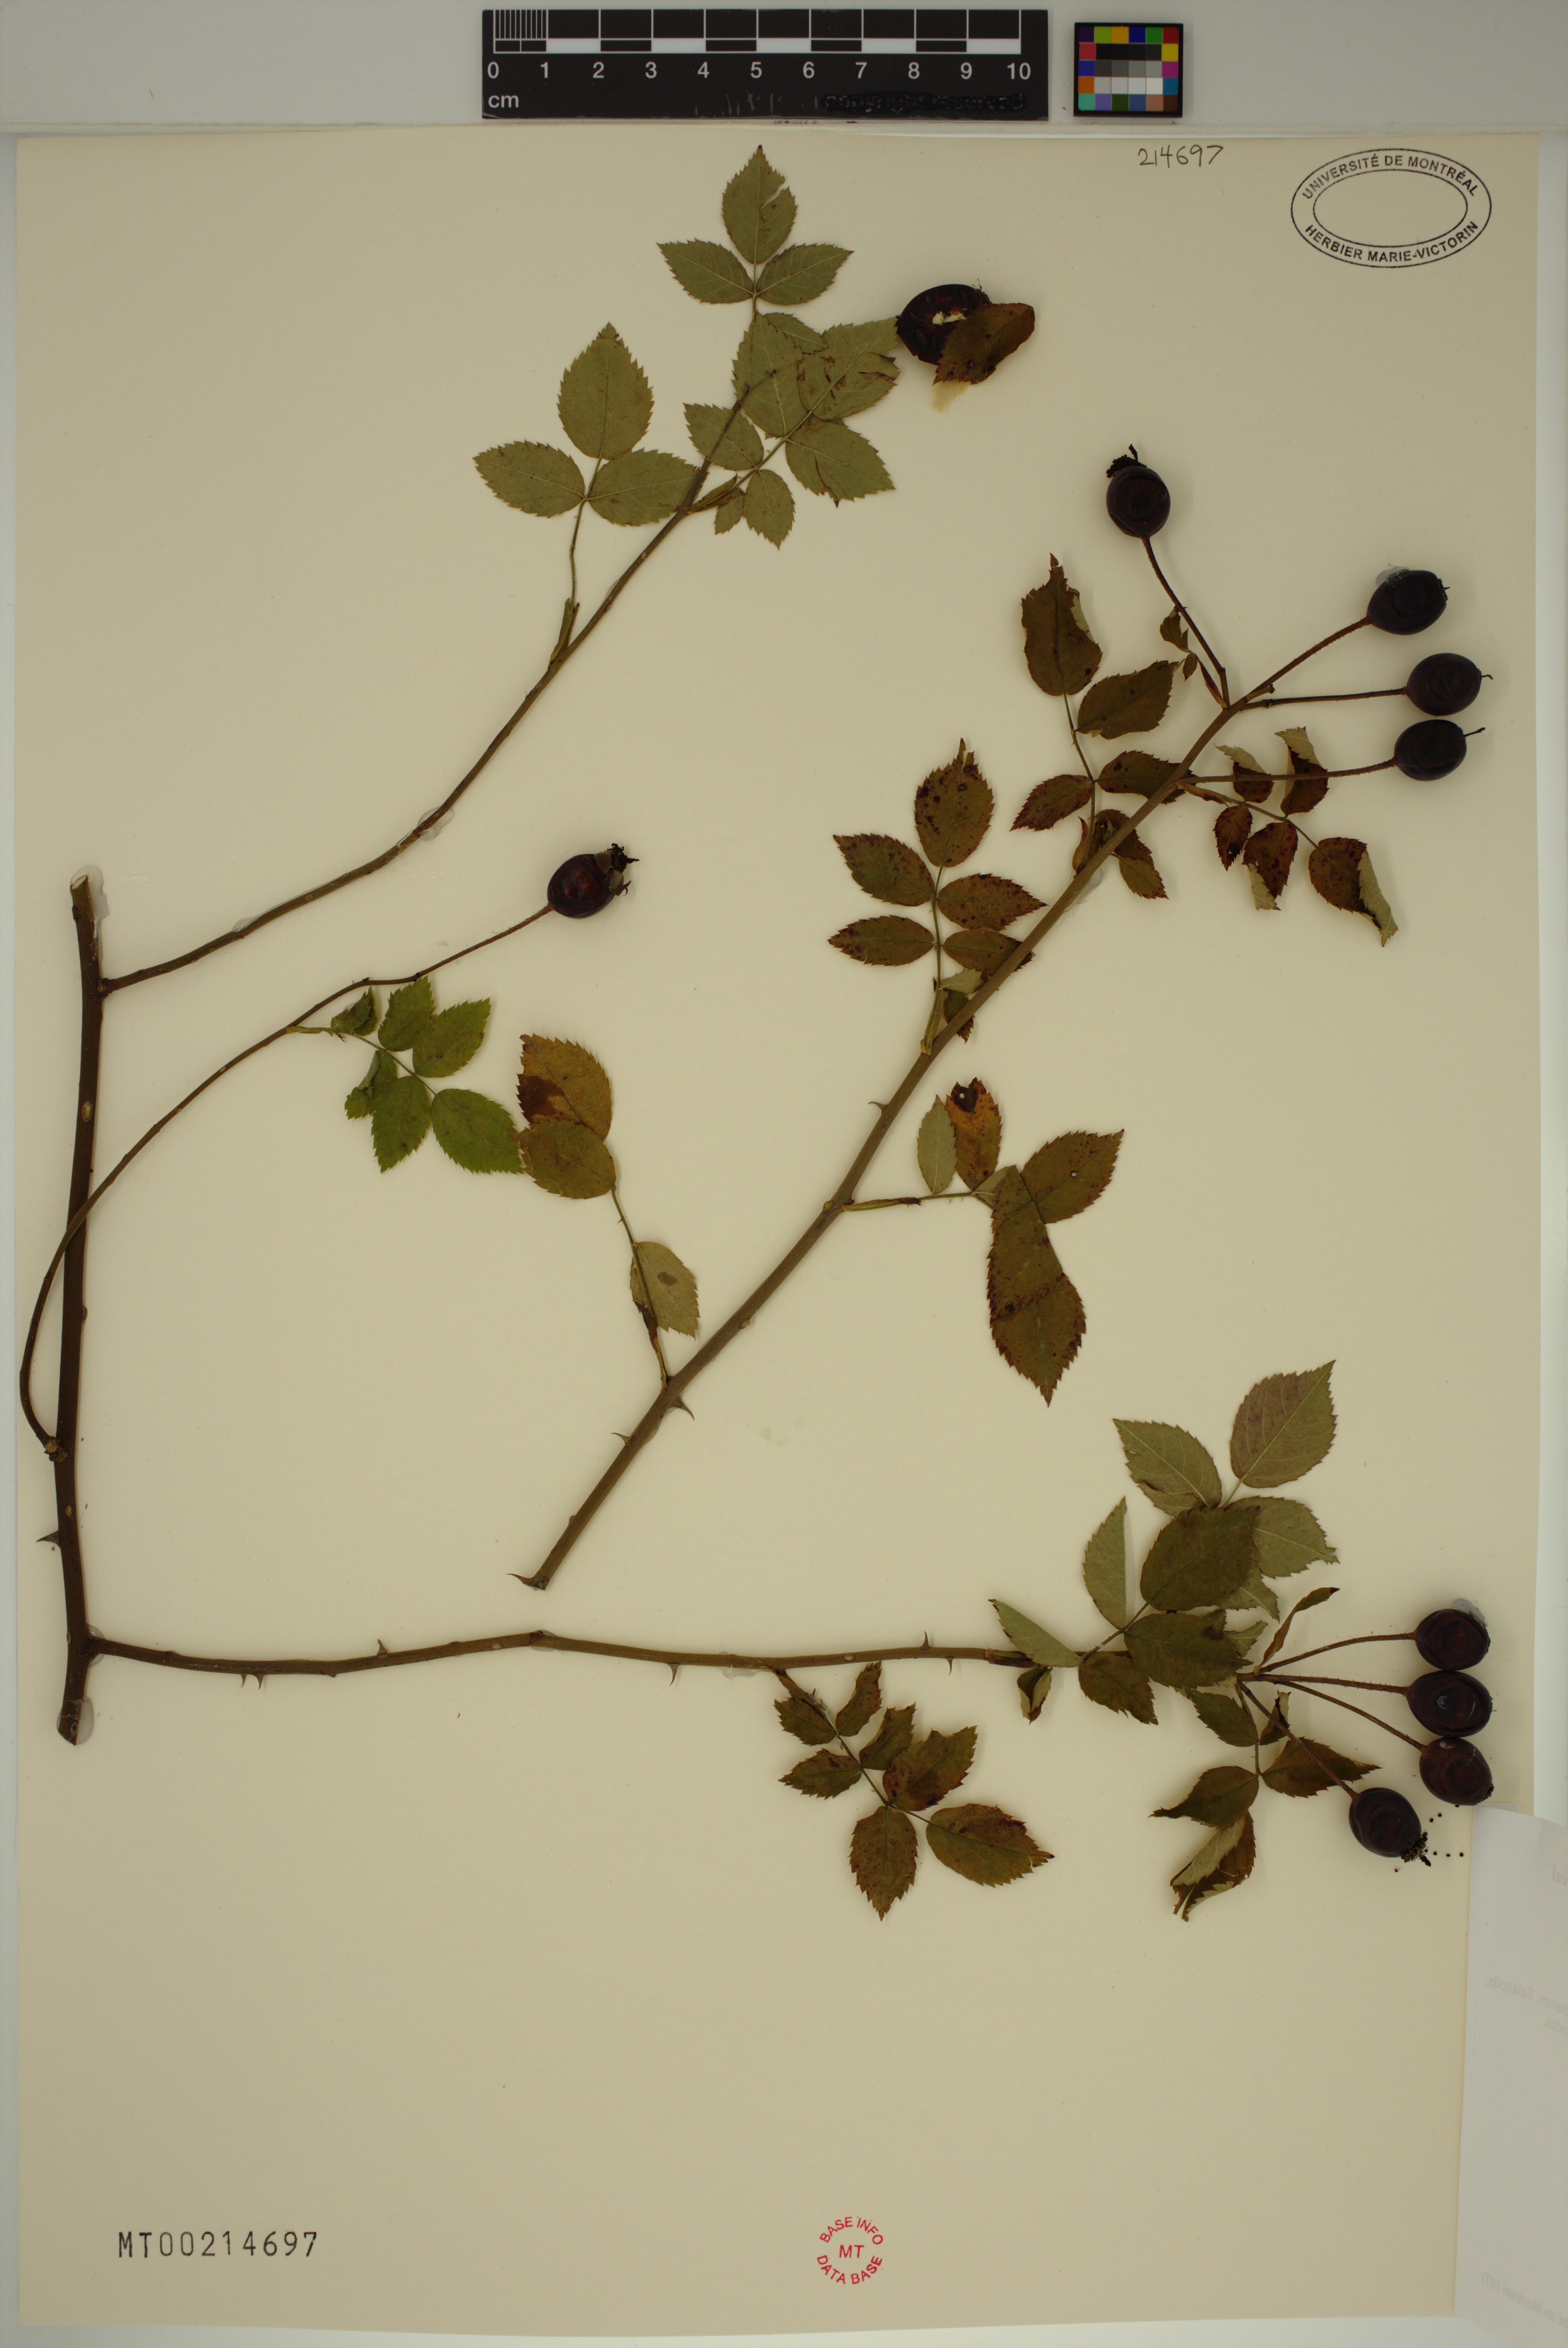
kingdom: Plantae
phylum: Tracheophyta
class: Magnoliopsida
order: Rosales
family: Rosaceae
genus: Rosa
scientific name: Rosa arvensis
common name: Field rose
